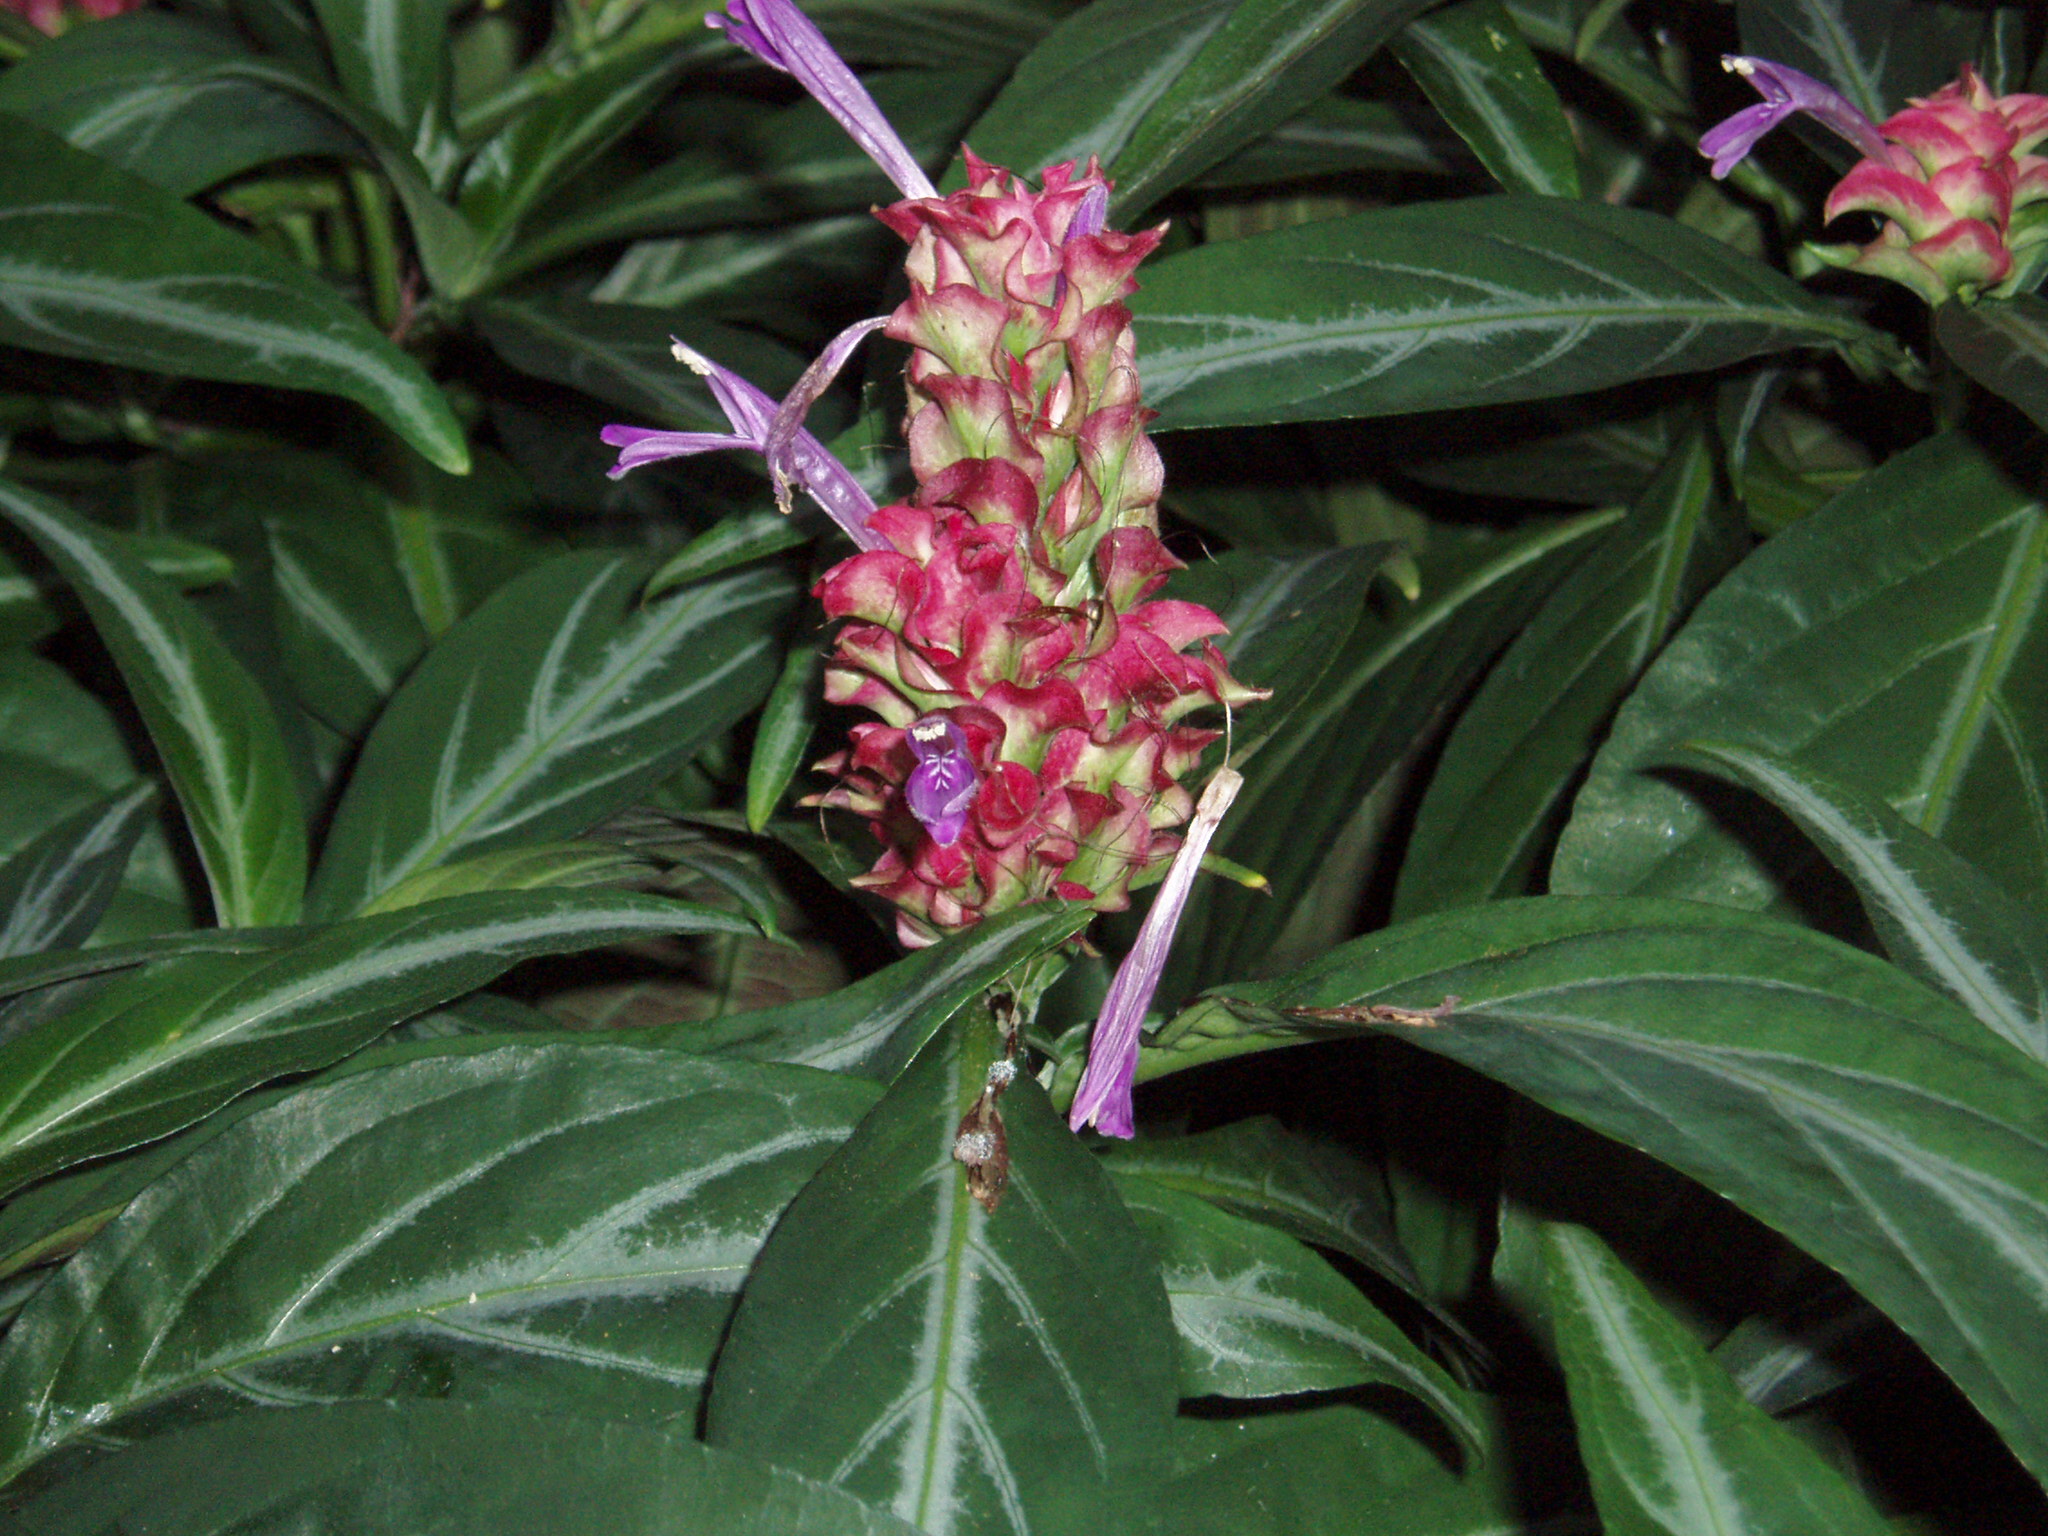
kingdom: Plantae
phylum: Tracheophyta
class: Magnoliopsida
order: Lamiales
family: Acanthaceae
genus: Justicia
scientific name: Justicia carnea
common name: Brazilian-plume
